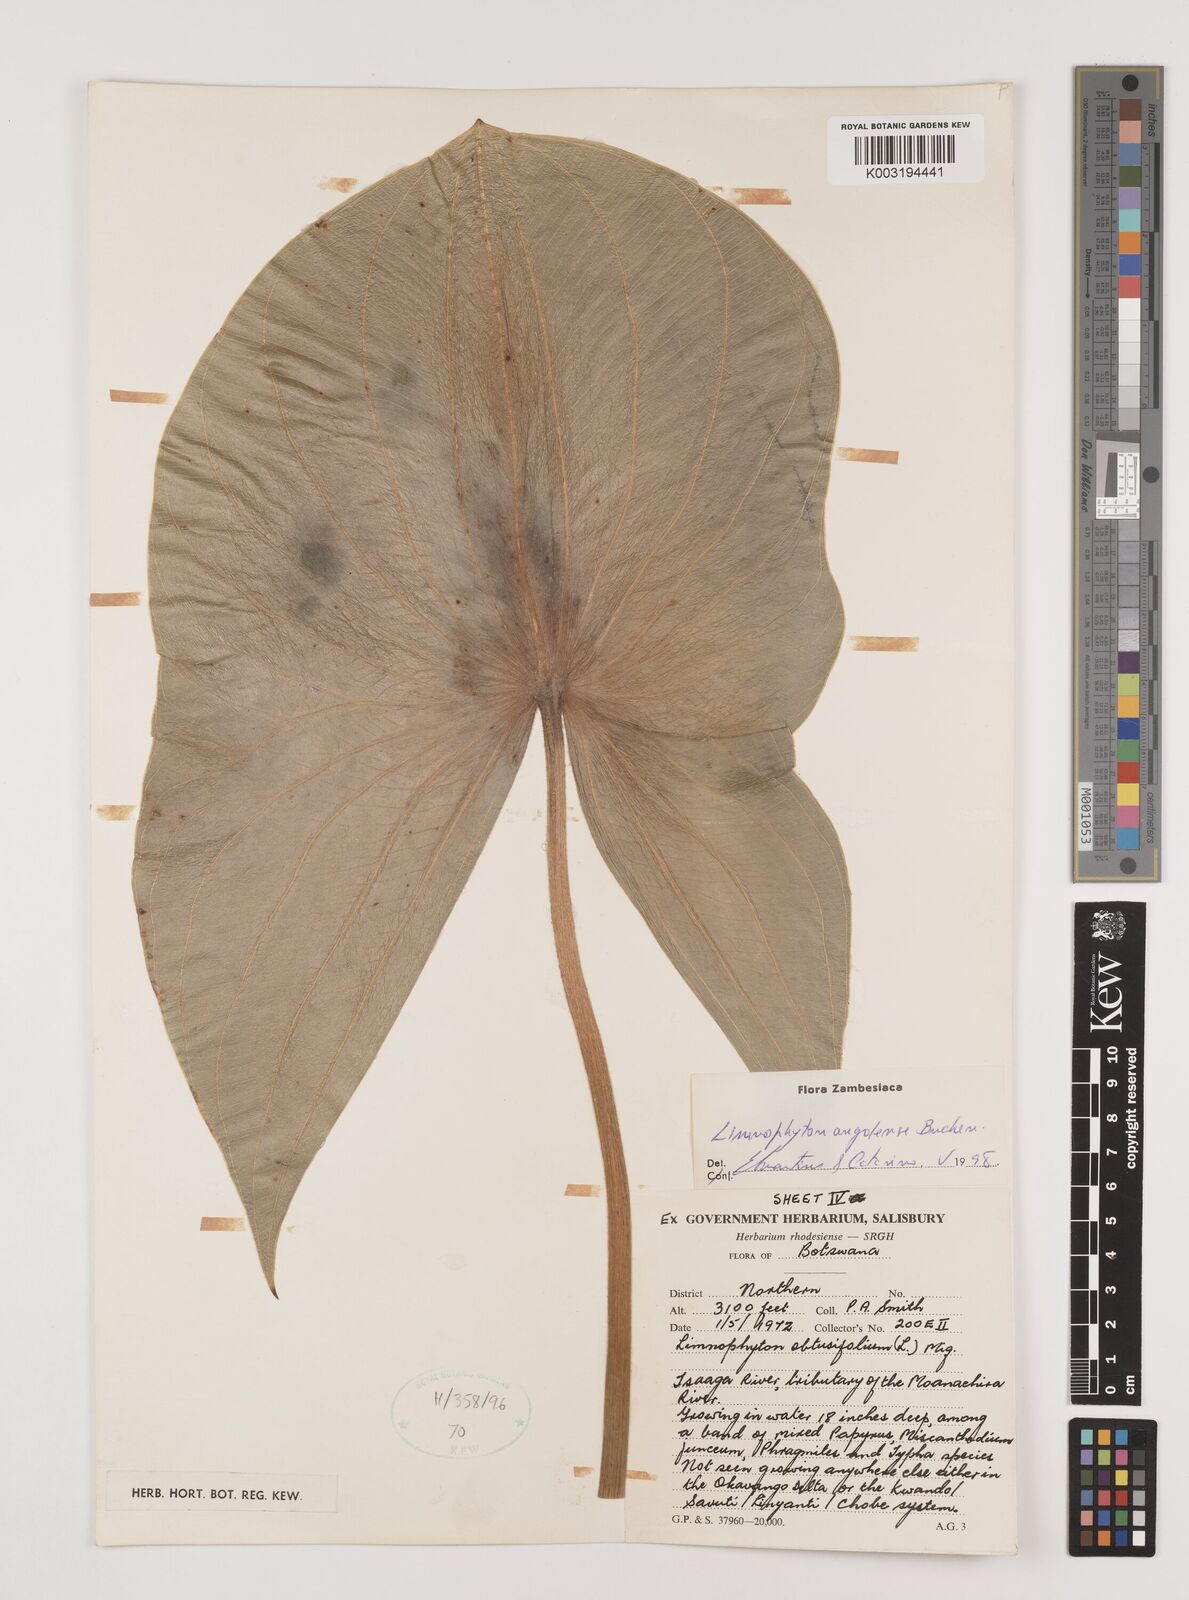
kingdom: Plantae
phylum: Tracheophyta
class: Liliopsida
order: Alismatales
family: Alismataceae
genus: Limnophyton
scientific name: Limnophyton angolense
